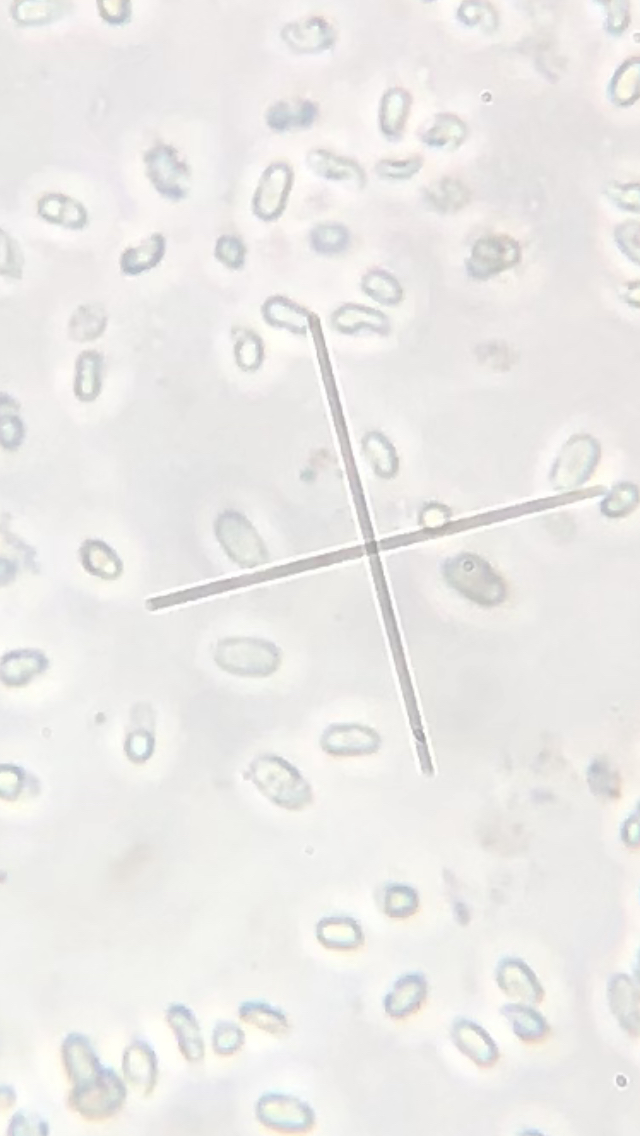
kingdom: Fungi
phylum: Basidiomycota
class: Agaricomycetes
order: Agaricales
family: Mycenaceae
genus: Mycena
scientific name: Mycena pelianthina
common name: mørkbladet huesvamp
